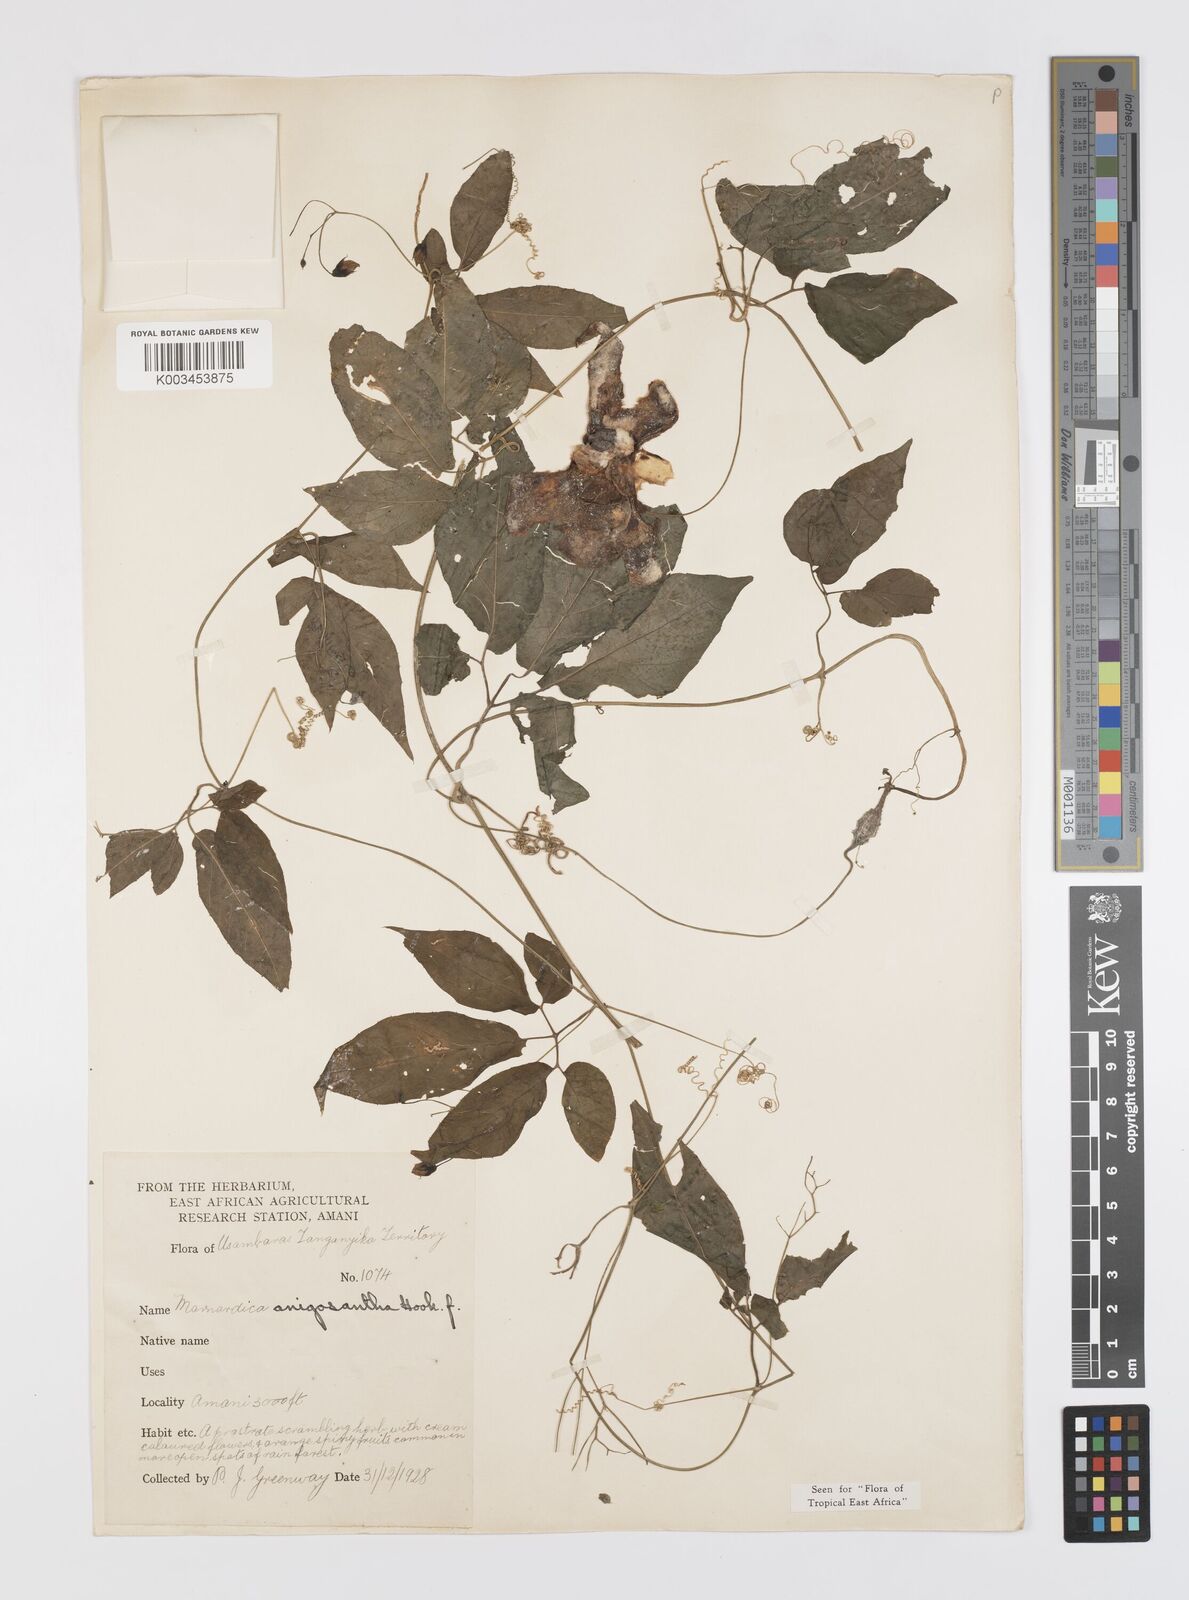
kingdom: Plantae
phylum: Tracheophyta
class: Magnoliopsida
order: Cucurbitales
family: Cucurbitaceae
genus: Momordica
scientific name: Momordica anigosantha
